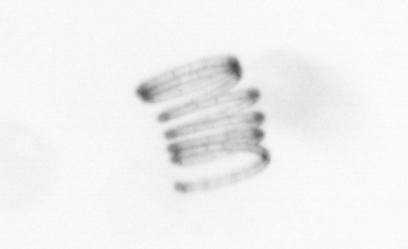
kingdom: Chromista
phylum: Ochrophyta
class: Bacillariophyceae
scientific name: Bacillariophyceae
